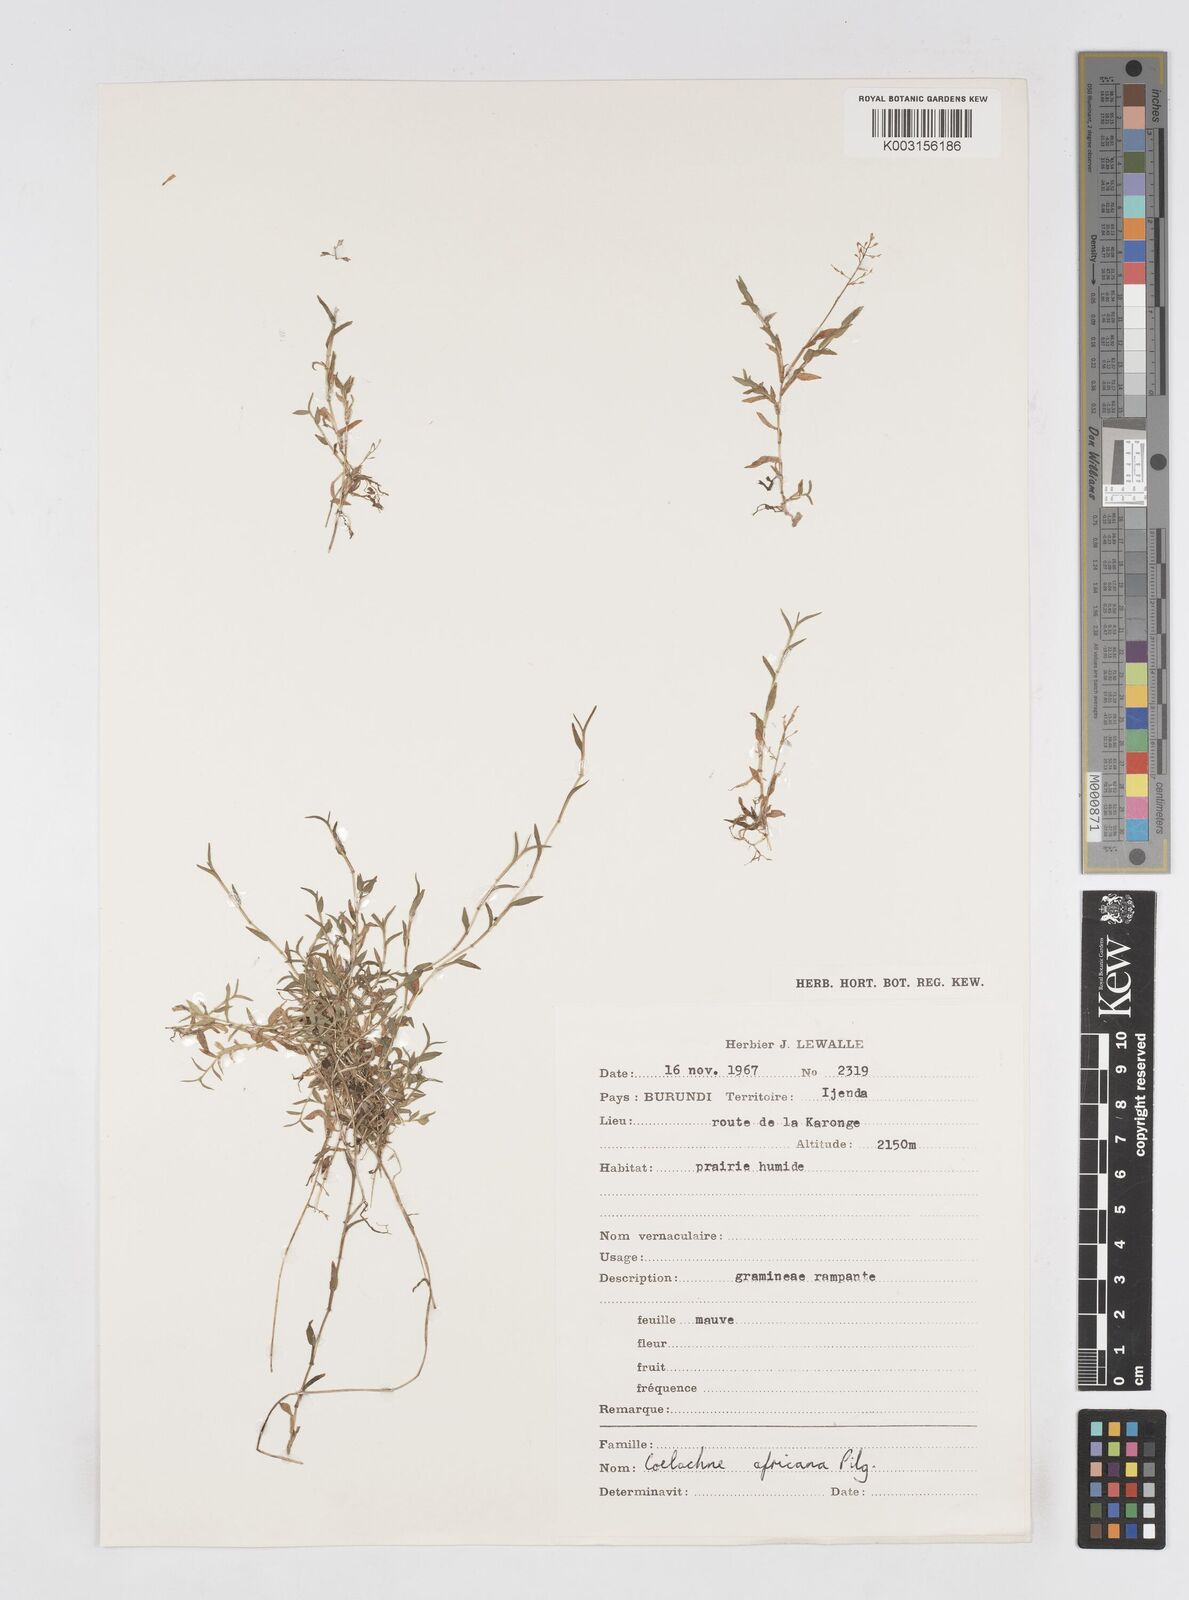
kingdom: Plantae
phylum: Tracheophyta
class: Liliopsida
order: Poales
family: Poaceae
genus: Coelachne
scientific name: Coelachne africana
